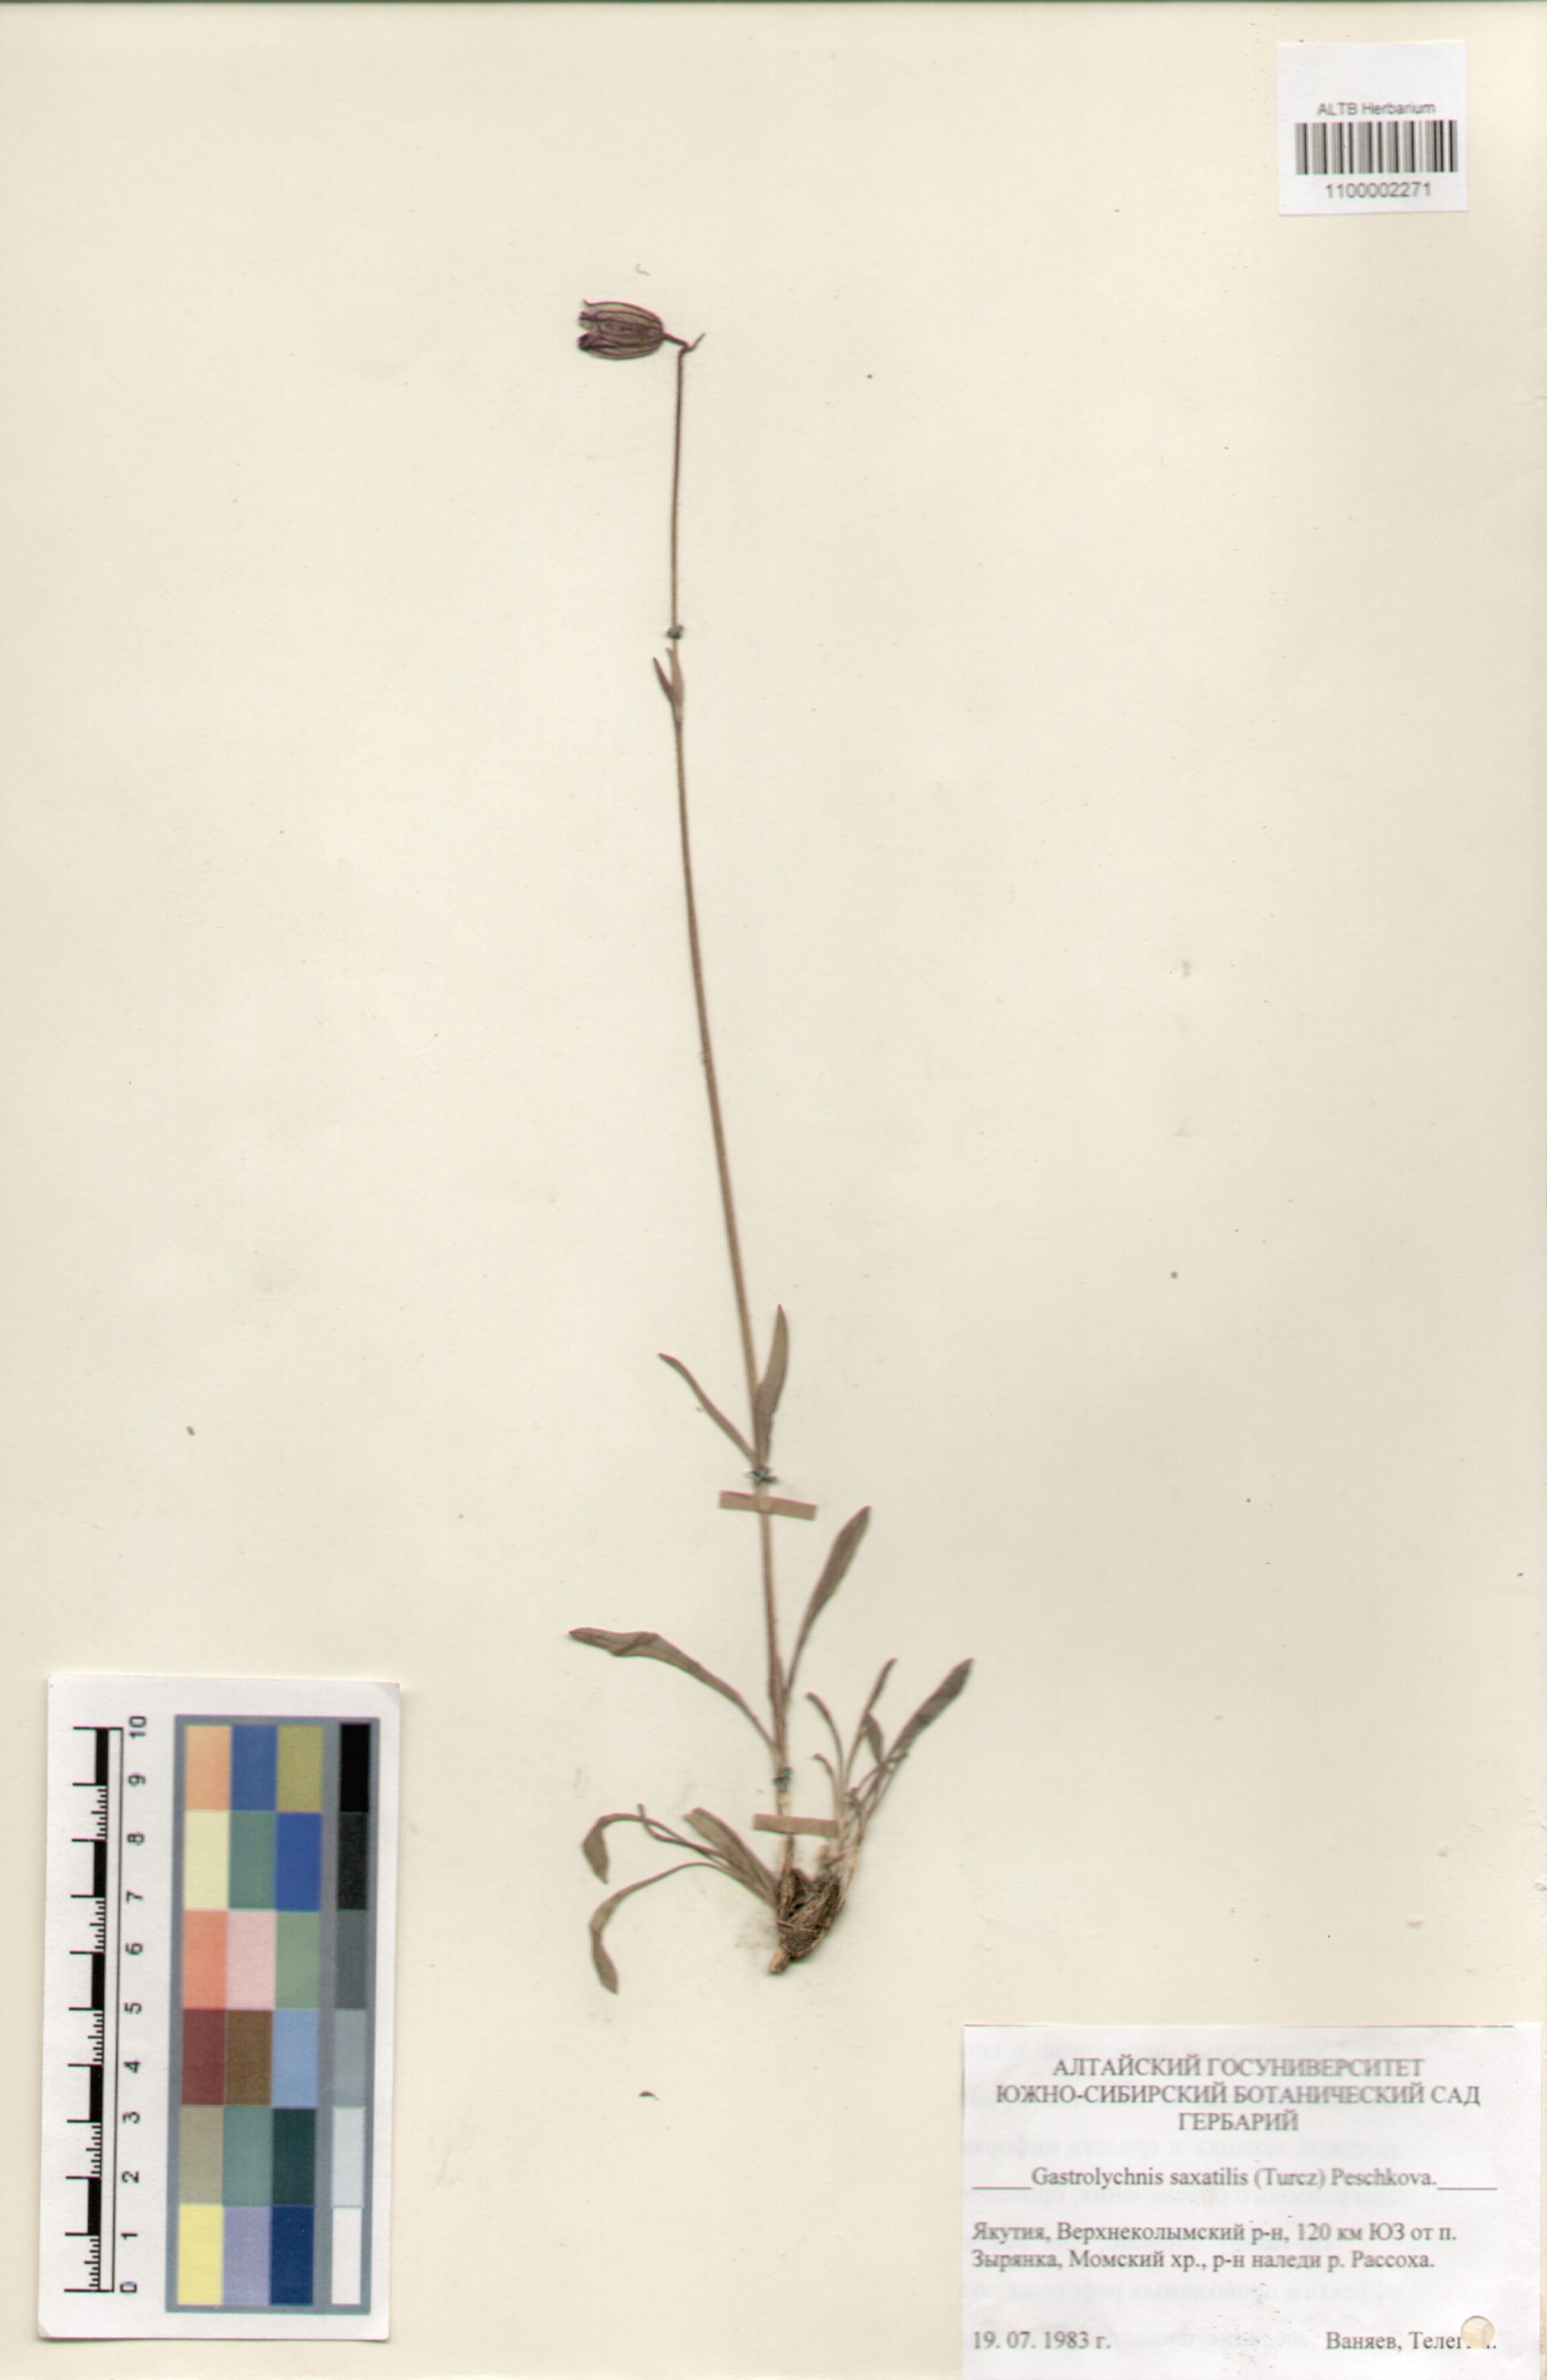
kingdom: Plantae
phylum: Tracheophyta
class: Magnoliopsida
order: Caryophyllales
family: Caryophyllaceae
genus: Silene
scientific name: Silene tolmatchevii
